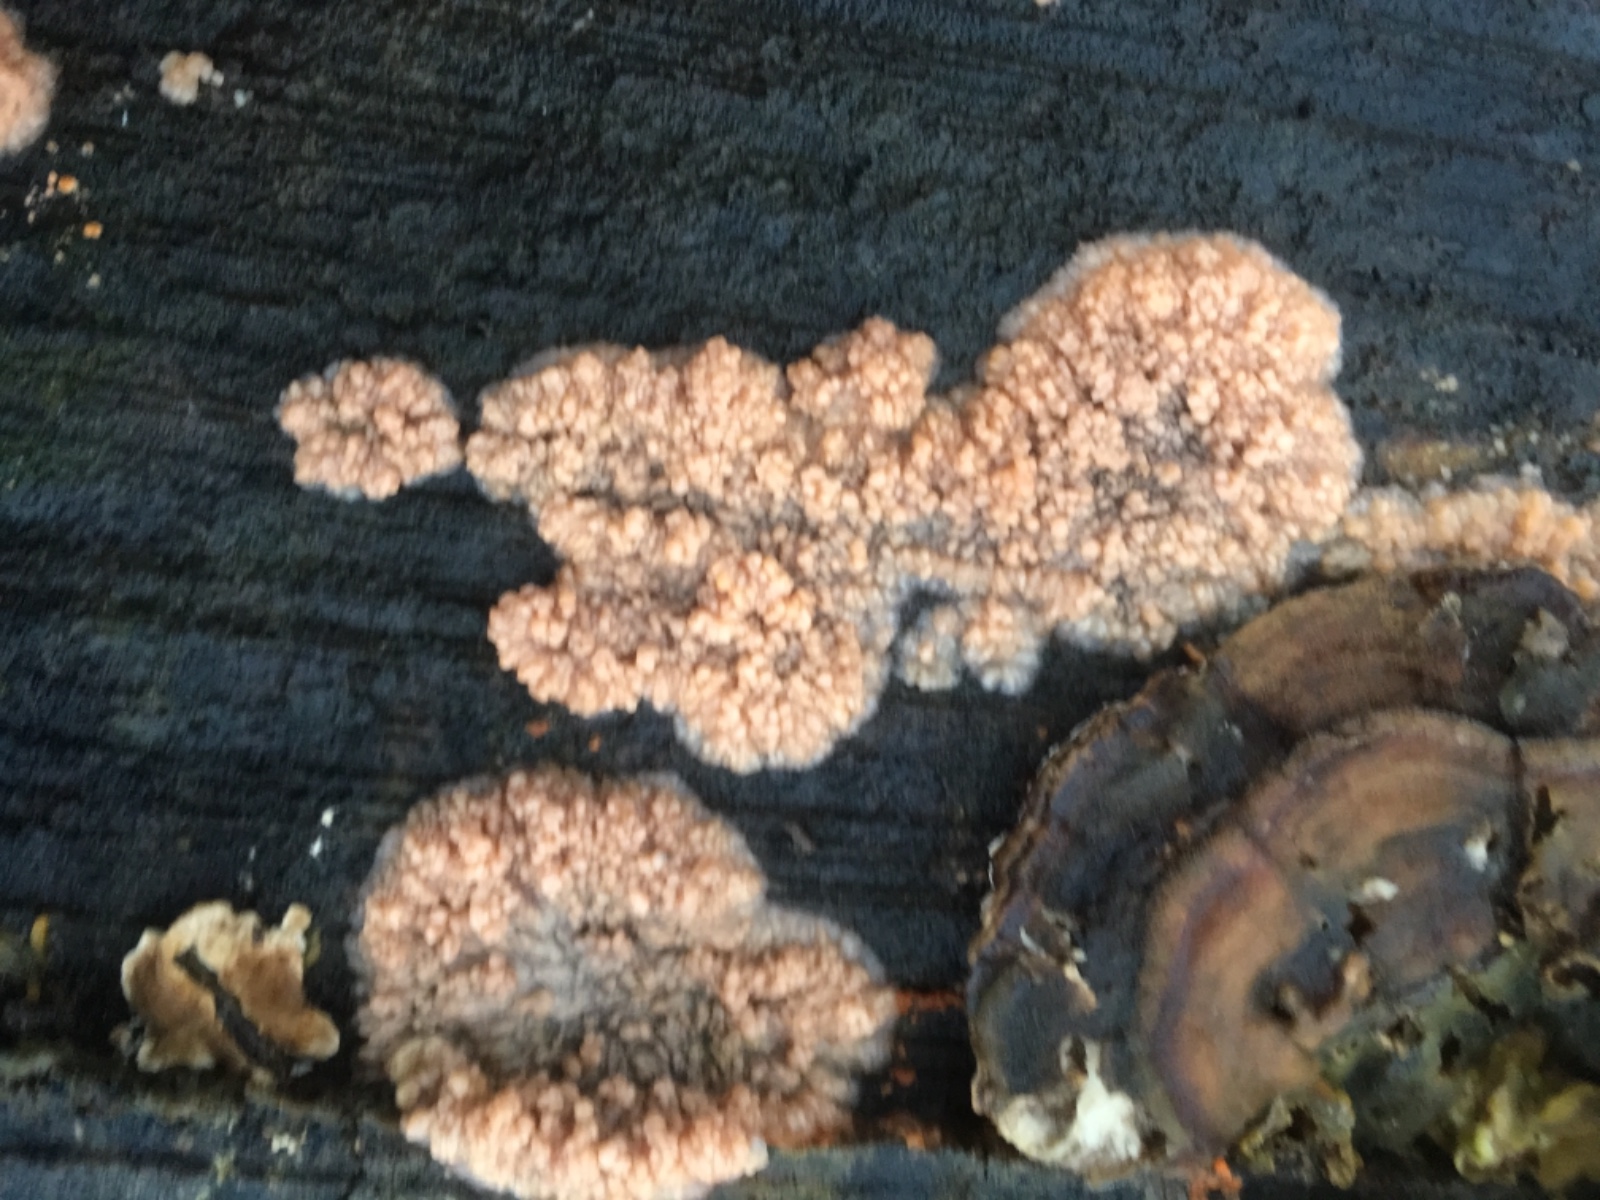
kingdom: Fungi
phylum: Basidiomycota
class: Agaricomycetes
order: Polyporales
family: Meruliaceae
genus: Phlebia
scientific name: Phlebia radiata
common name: stråle-åresvamp
